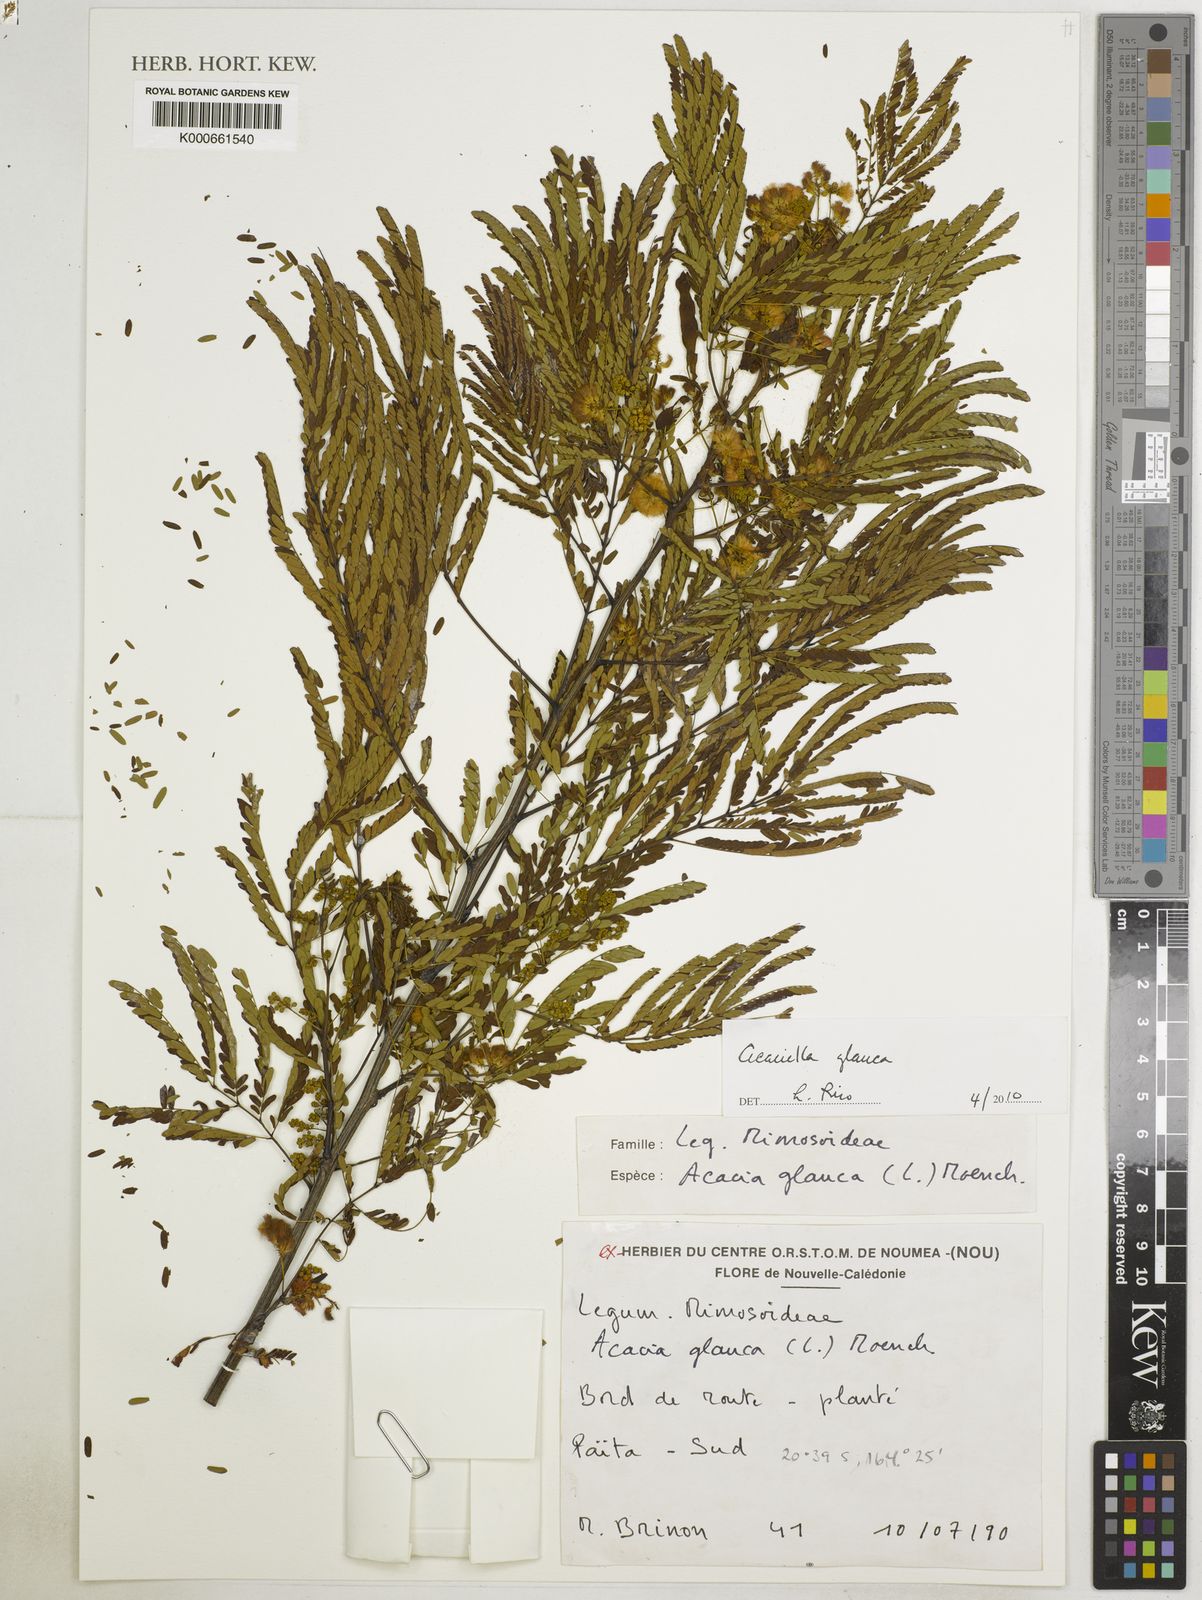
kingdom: Plantae
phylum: Tracheophyta
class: Magnoliopsida
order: Fabales
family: Fabaceae
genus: Acaciella
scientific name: Acaciella glauca
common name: Redwood
